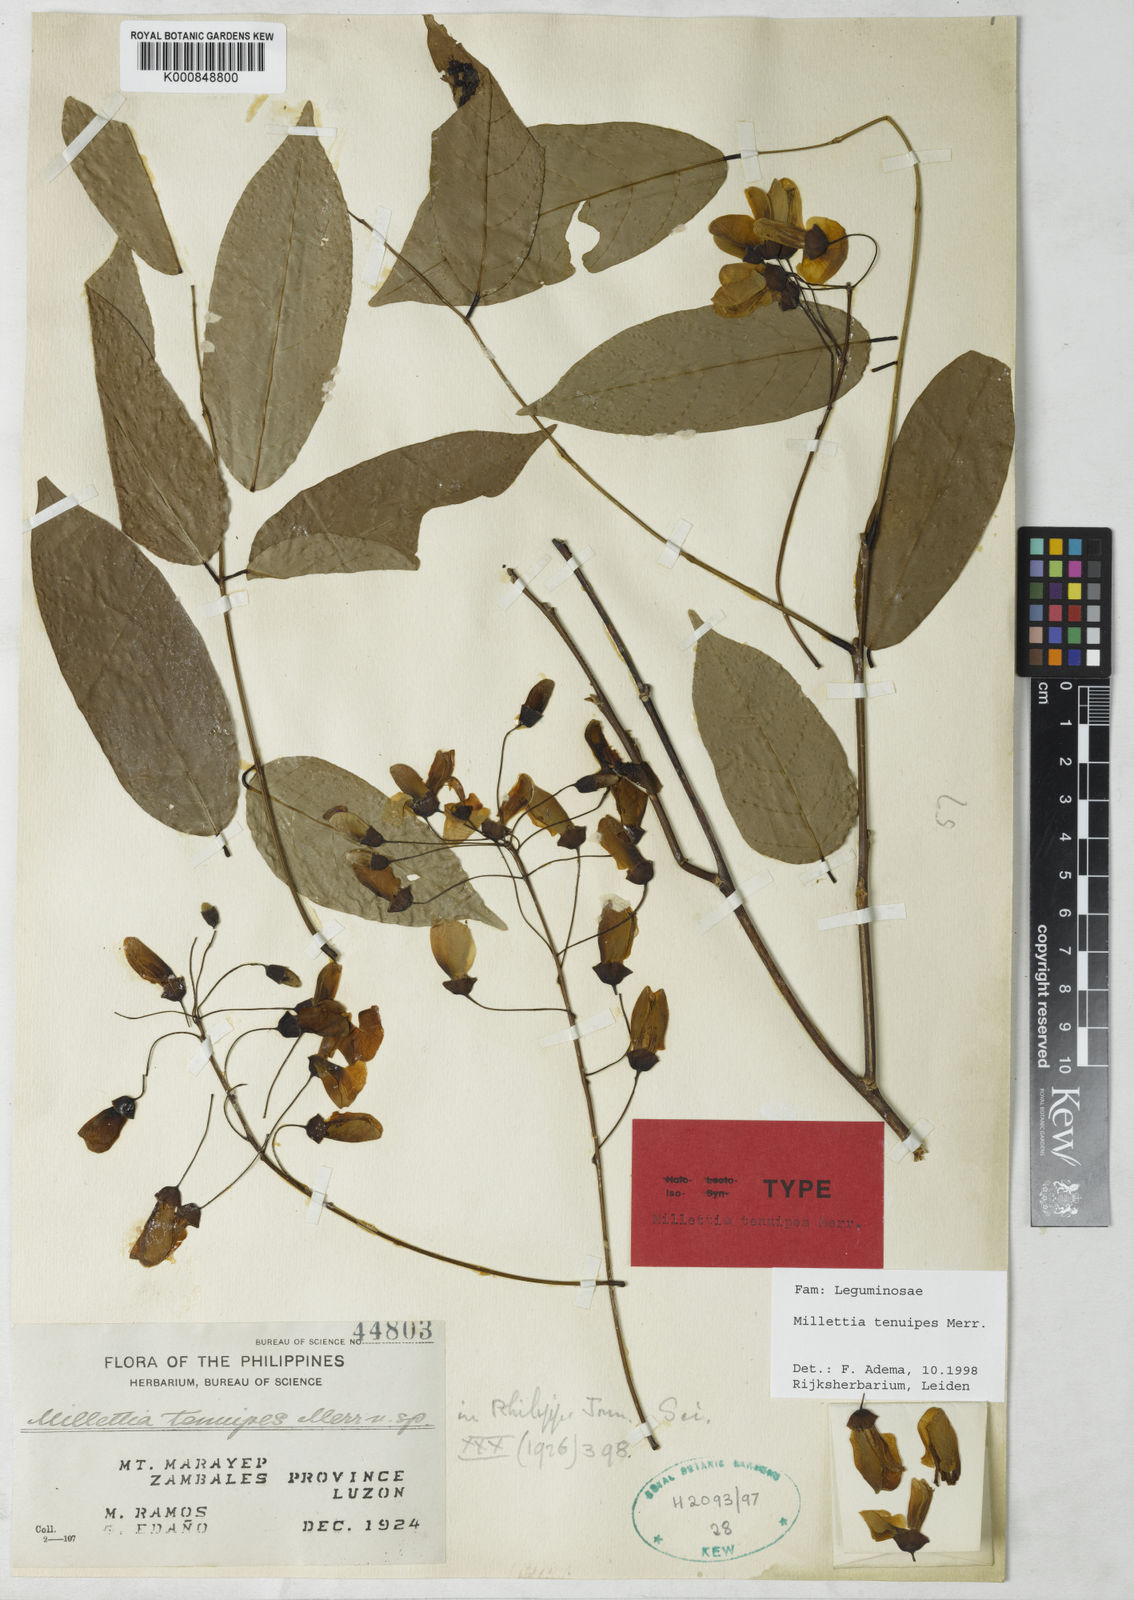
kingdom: Plantae
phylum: Tracheophyta
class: Magnoliopsida
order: Fabales
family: Fabaceae
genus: Millettia
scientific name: Millettia tenuipes
